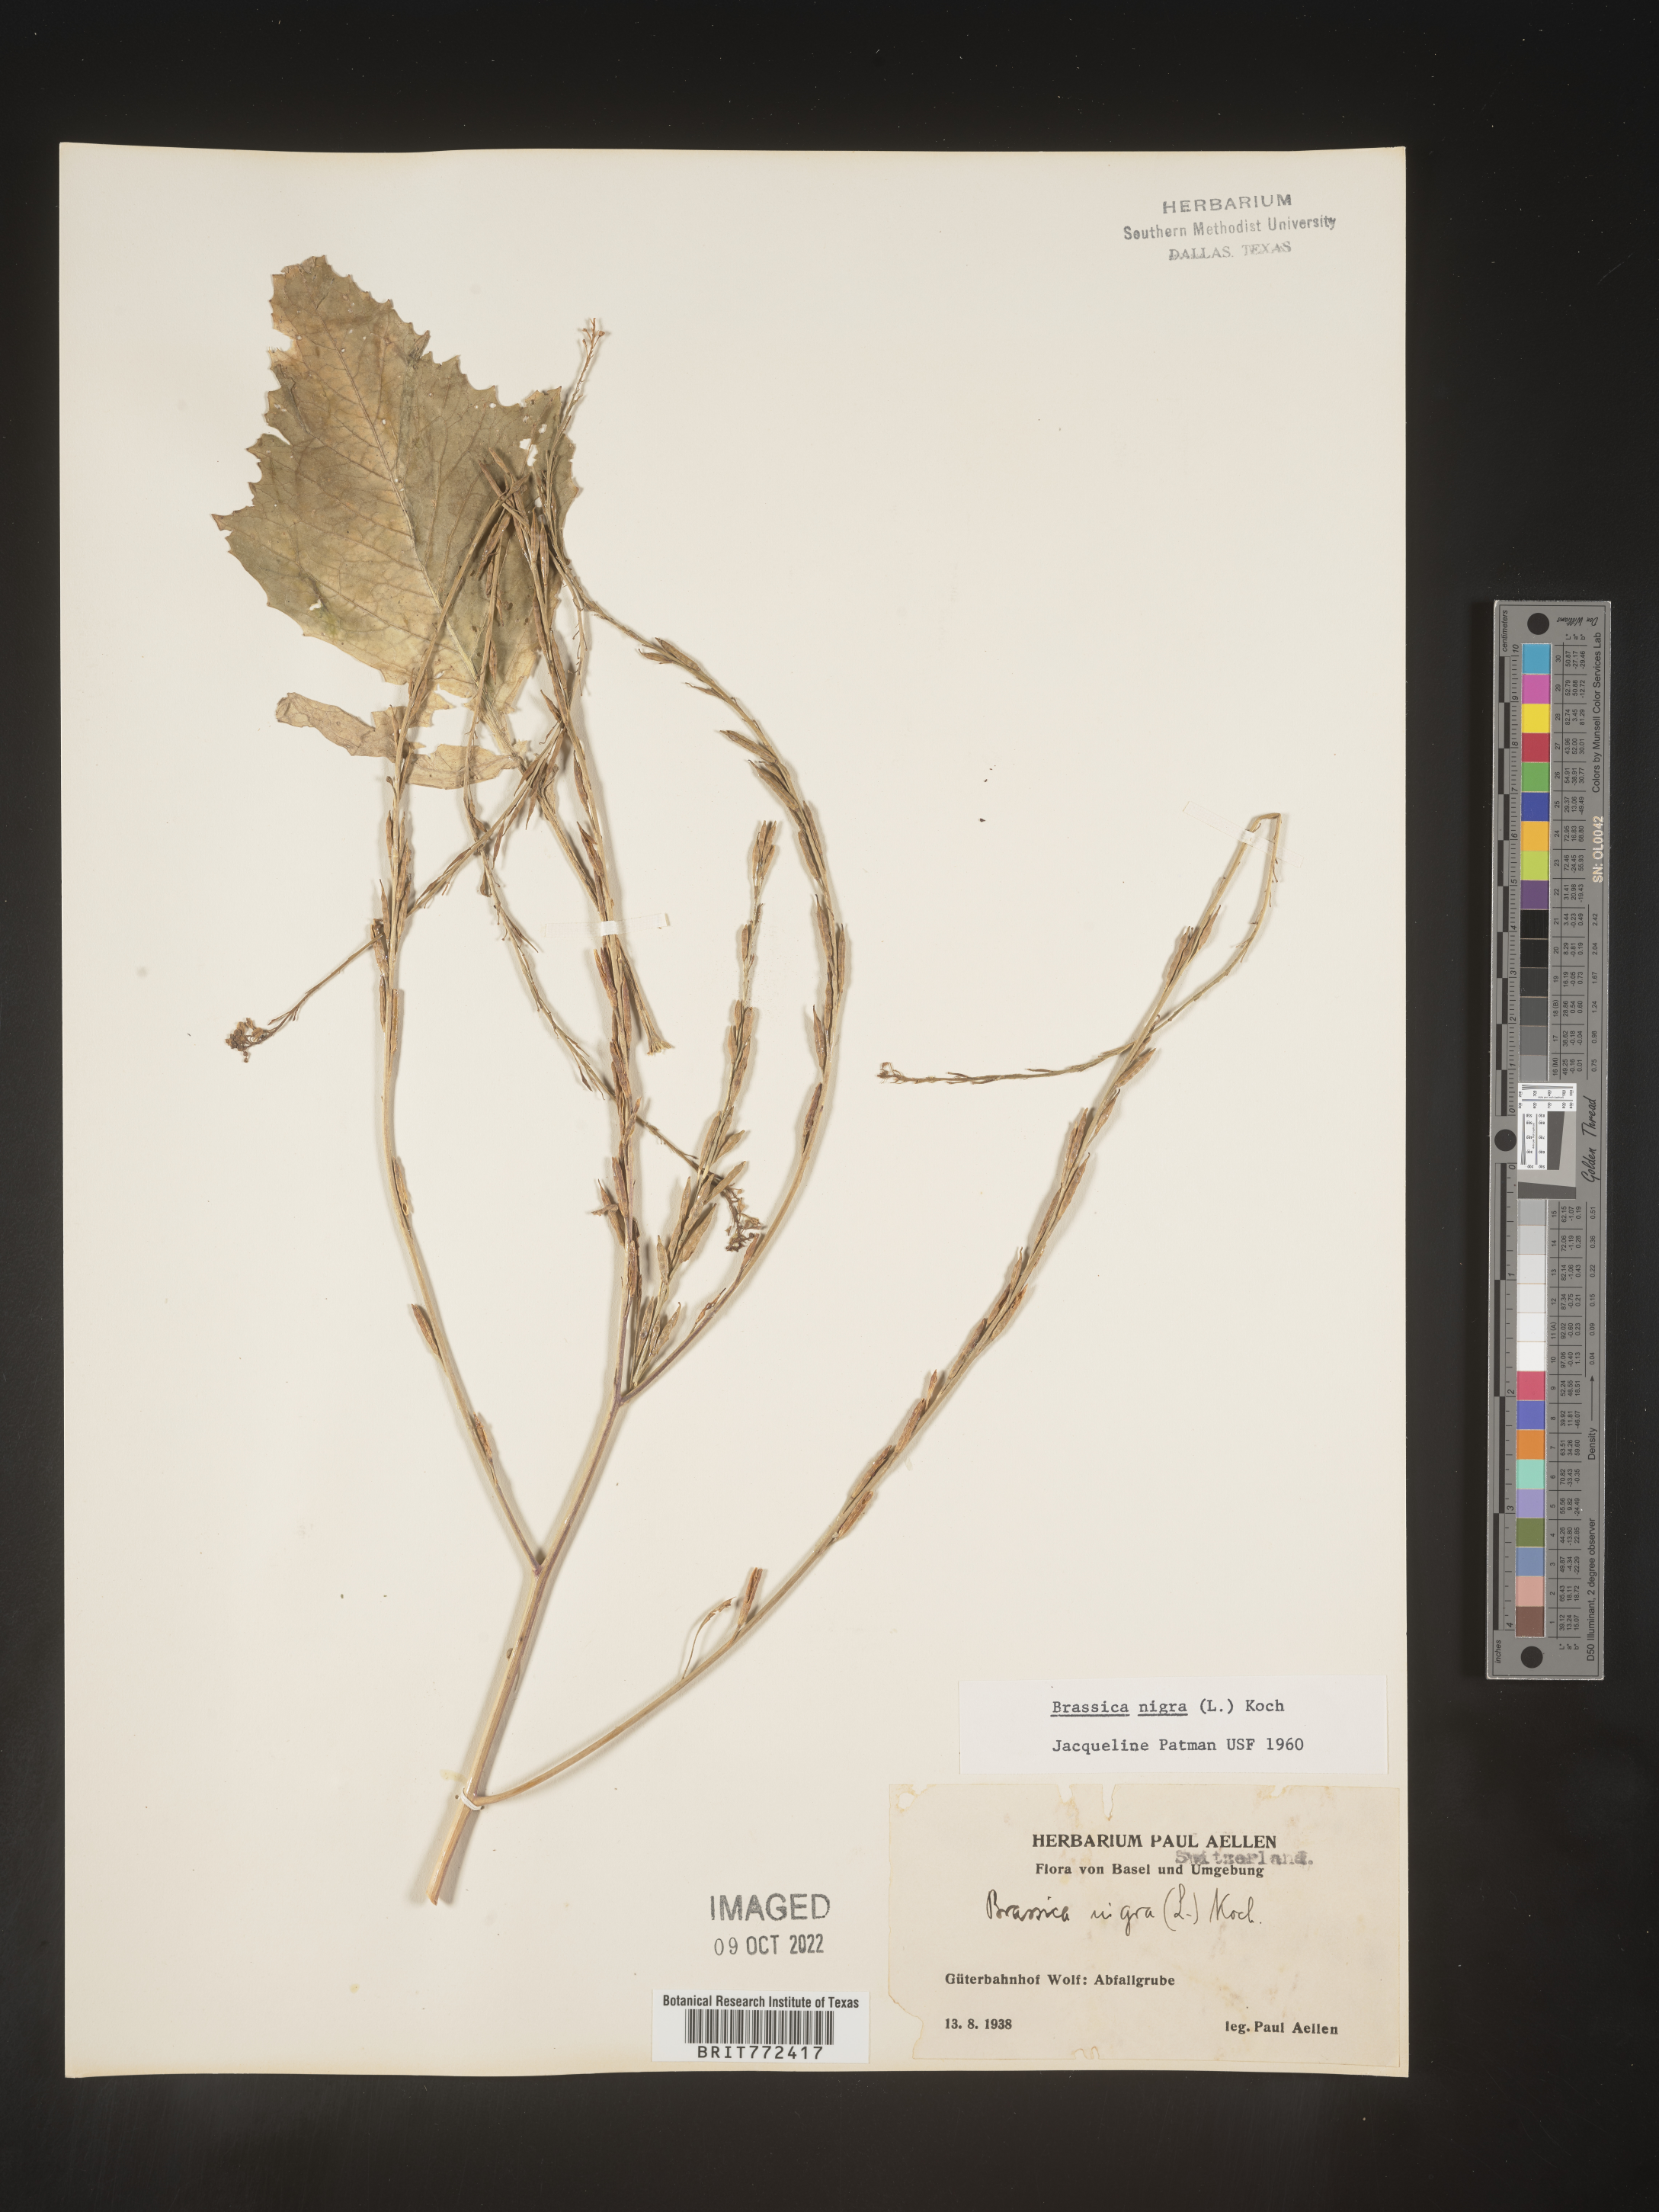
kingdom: Plantae
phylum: Tracheophyta
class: Magnoliopsida
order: Brassicales
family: Brassicaceae
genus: Brassica
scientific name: Brassica
